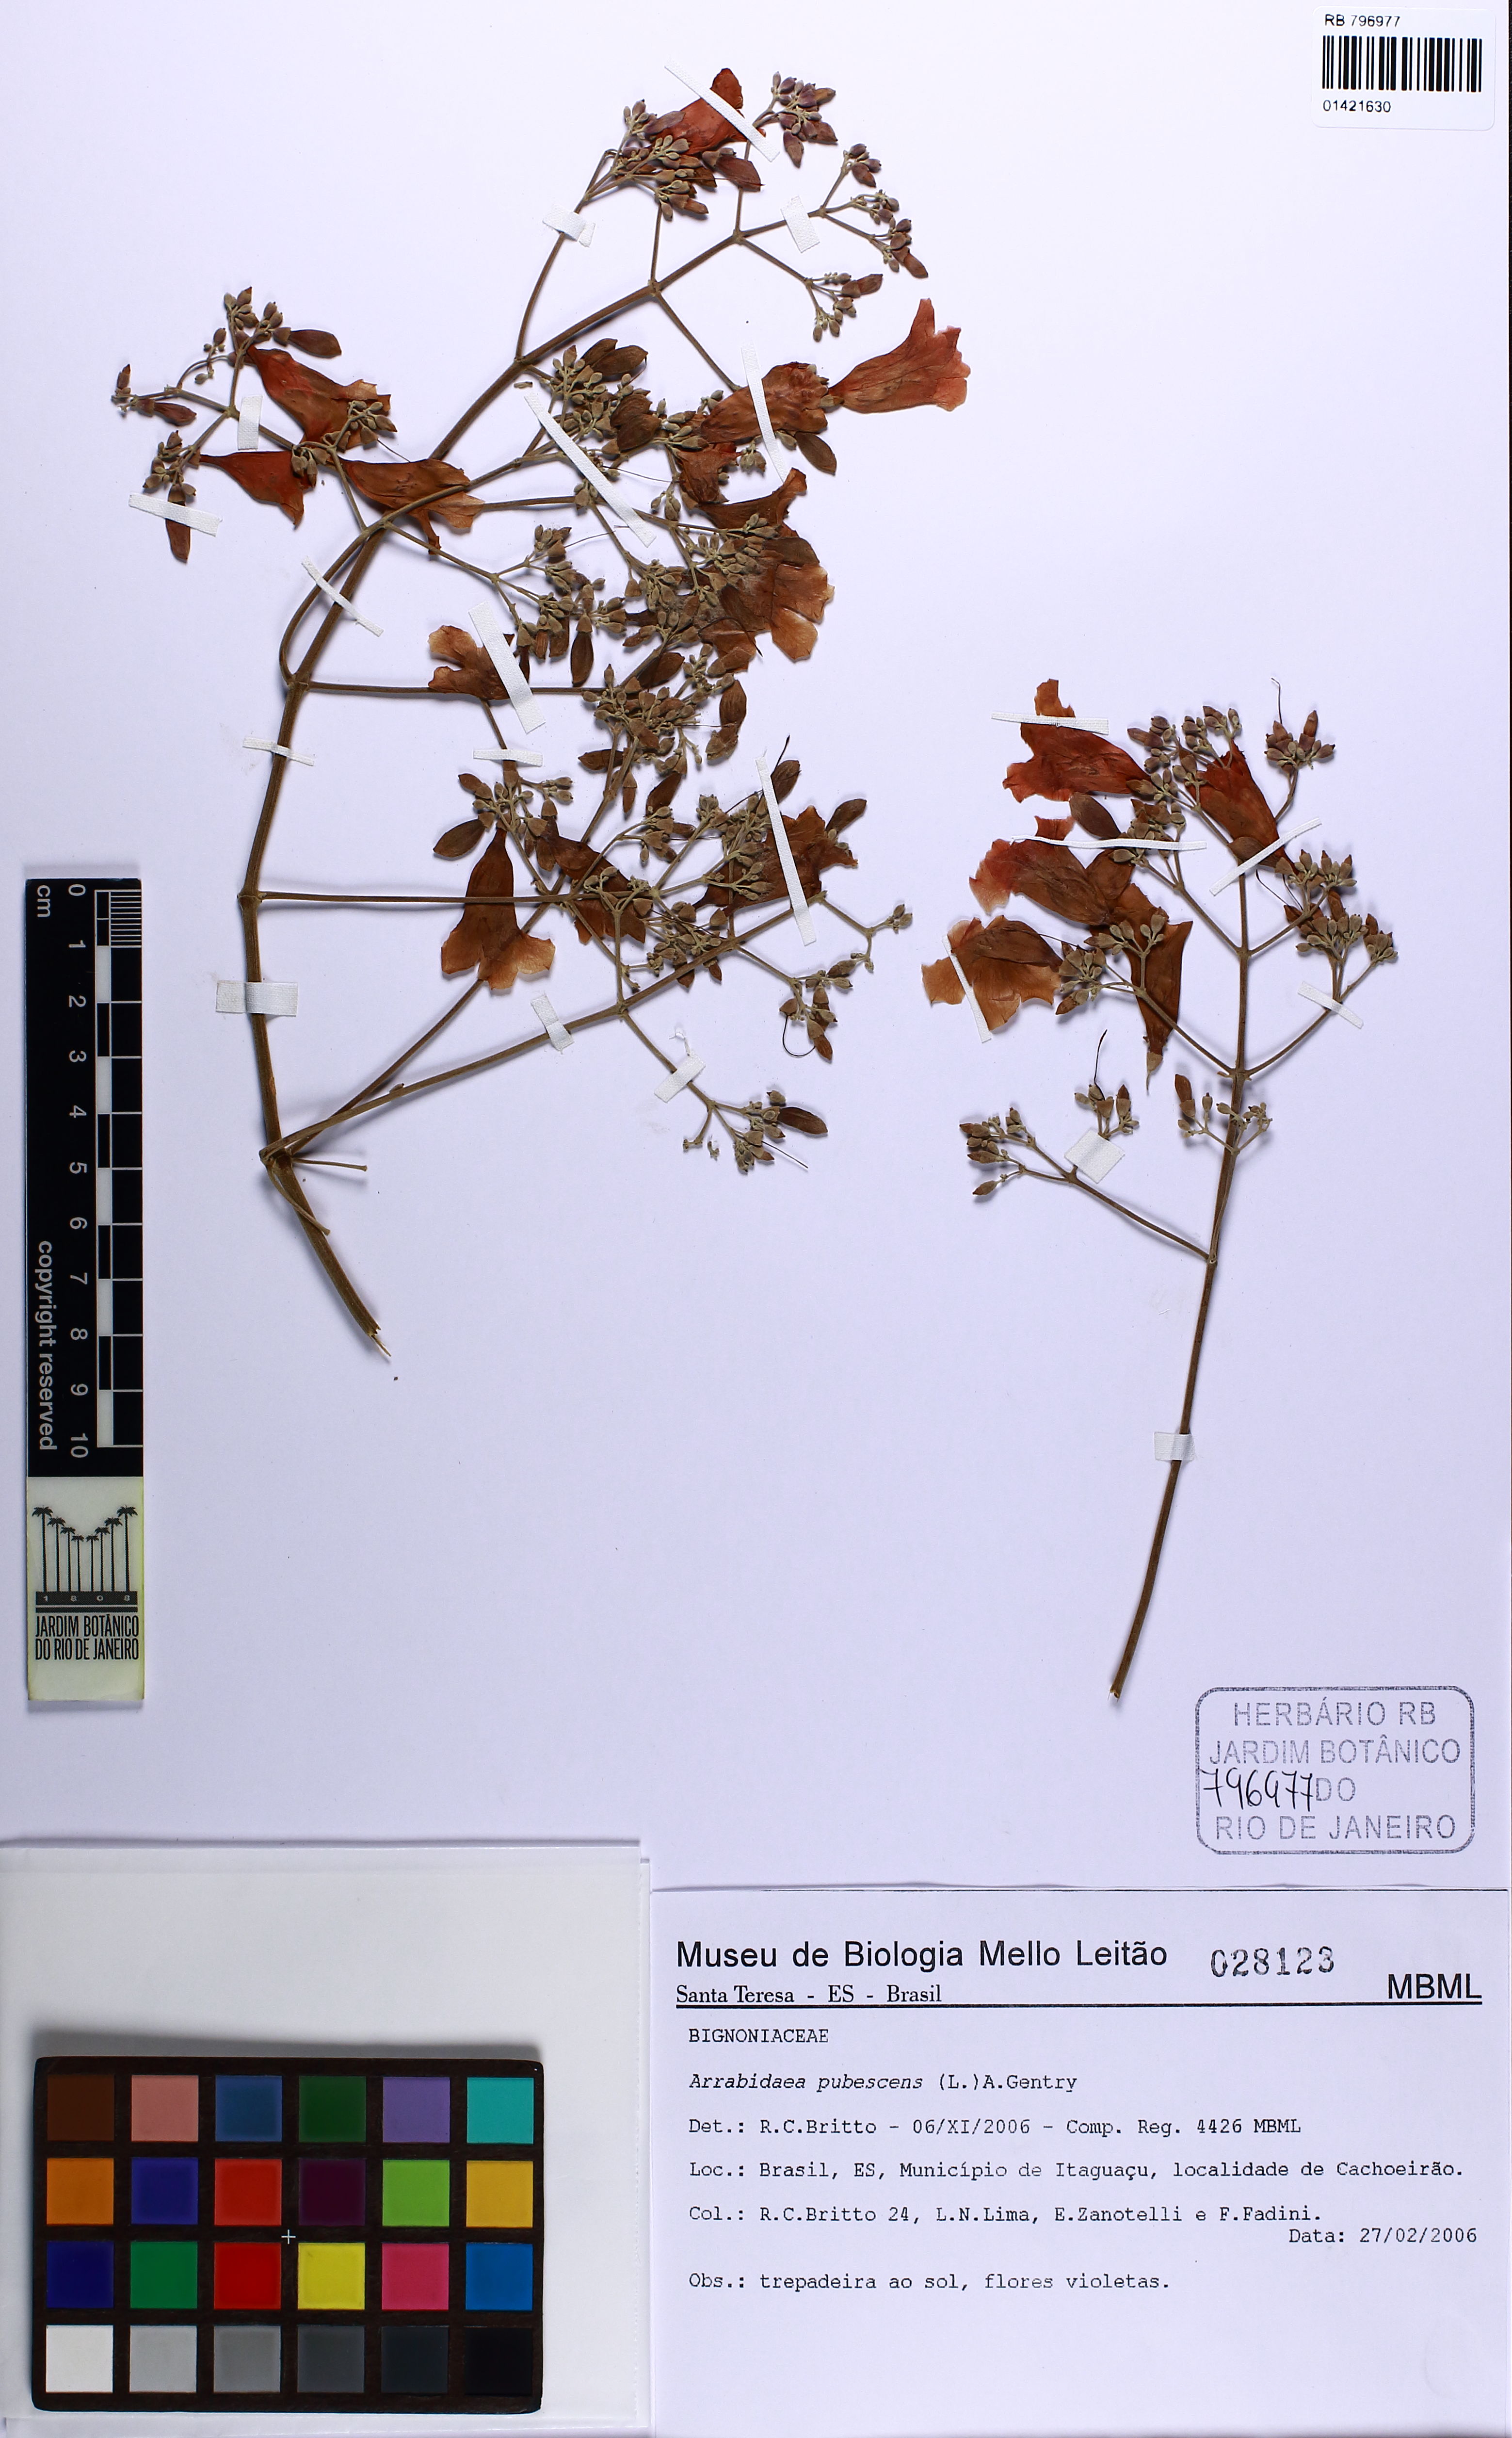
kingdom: Plantae
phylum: Tracheophyta
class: Magnoliopsida
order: Lamiales
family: Bignoniaceae
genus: Fridericia
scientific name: Fridericia pubescens
